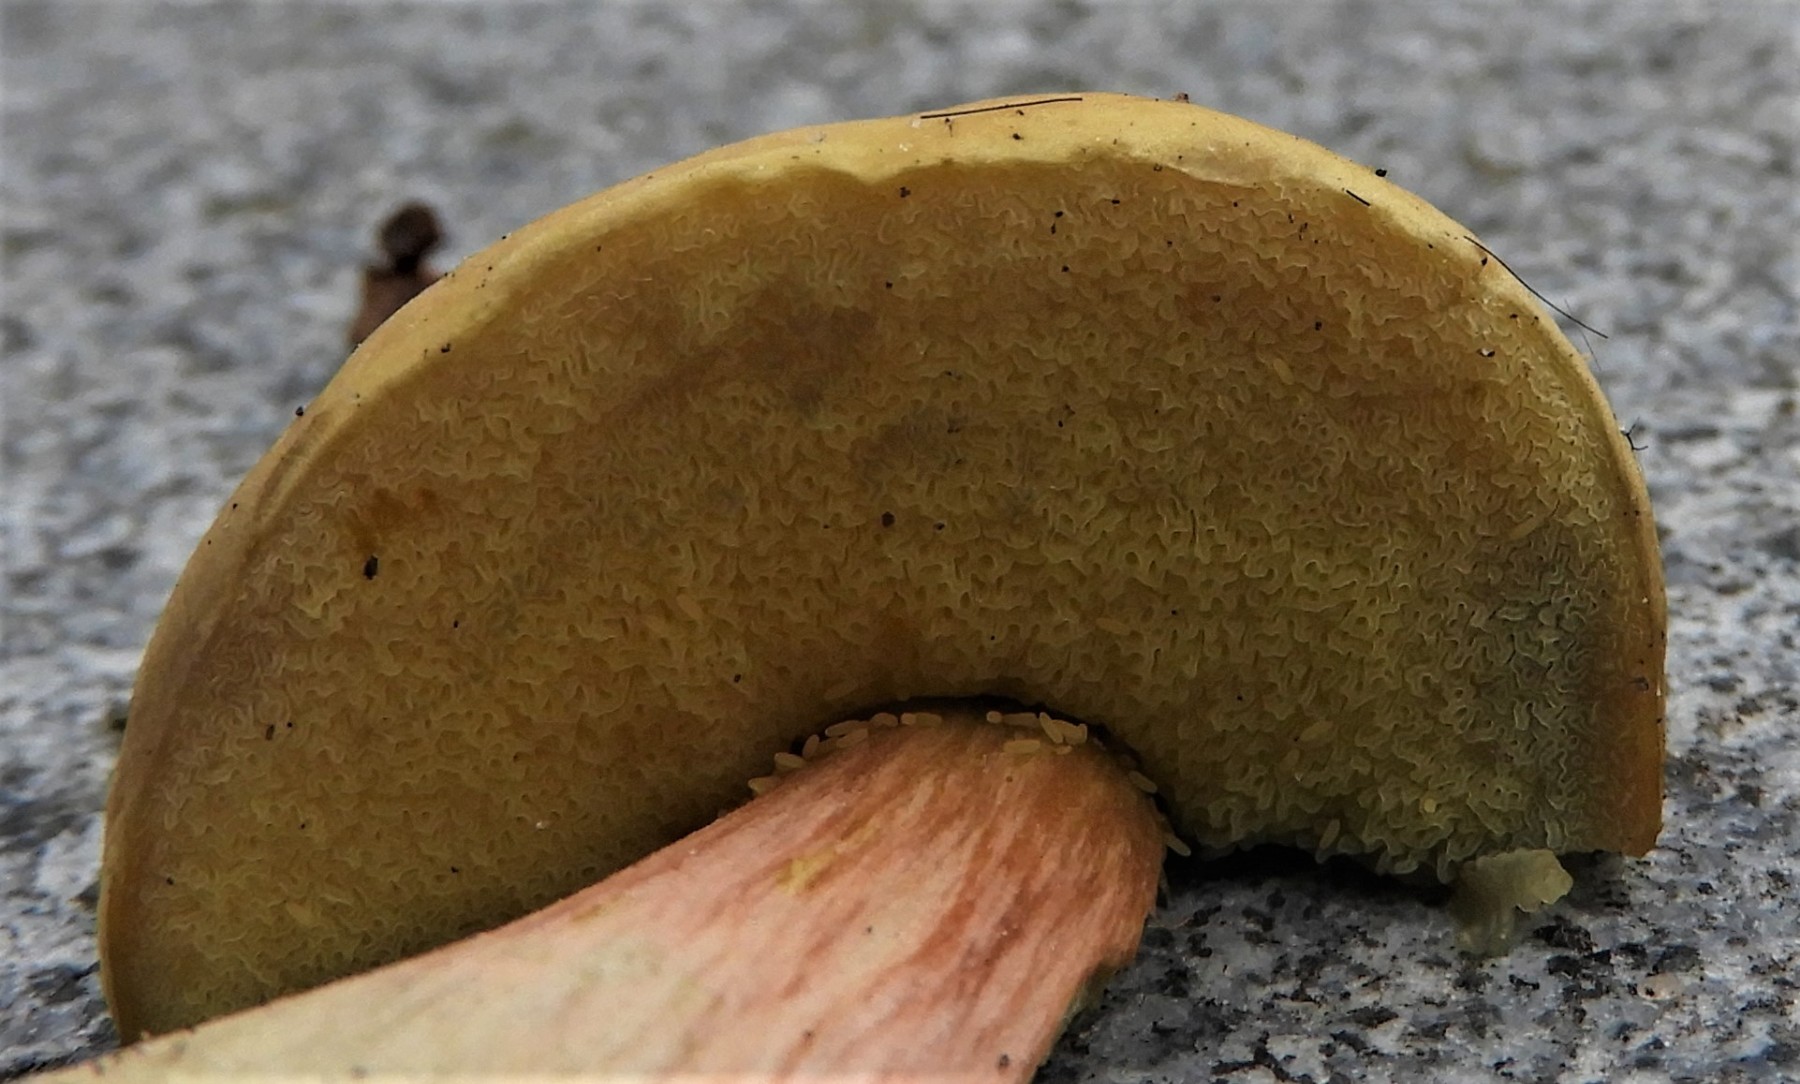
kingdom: Fungi
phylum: Basidiomycota
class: Agaricomycetes
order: Boletales
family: Boletaceae
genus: Hortiboletus
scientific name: Hortiboletus bubalinus
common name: aurora-rørhat
